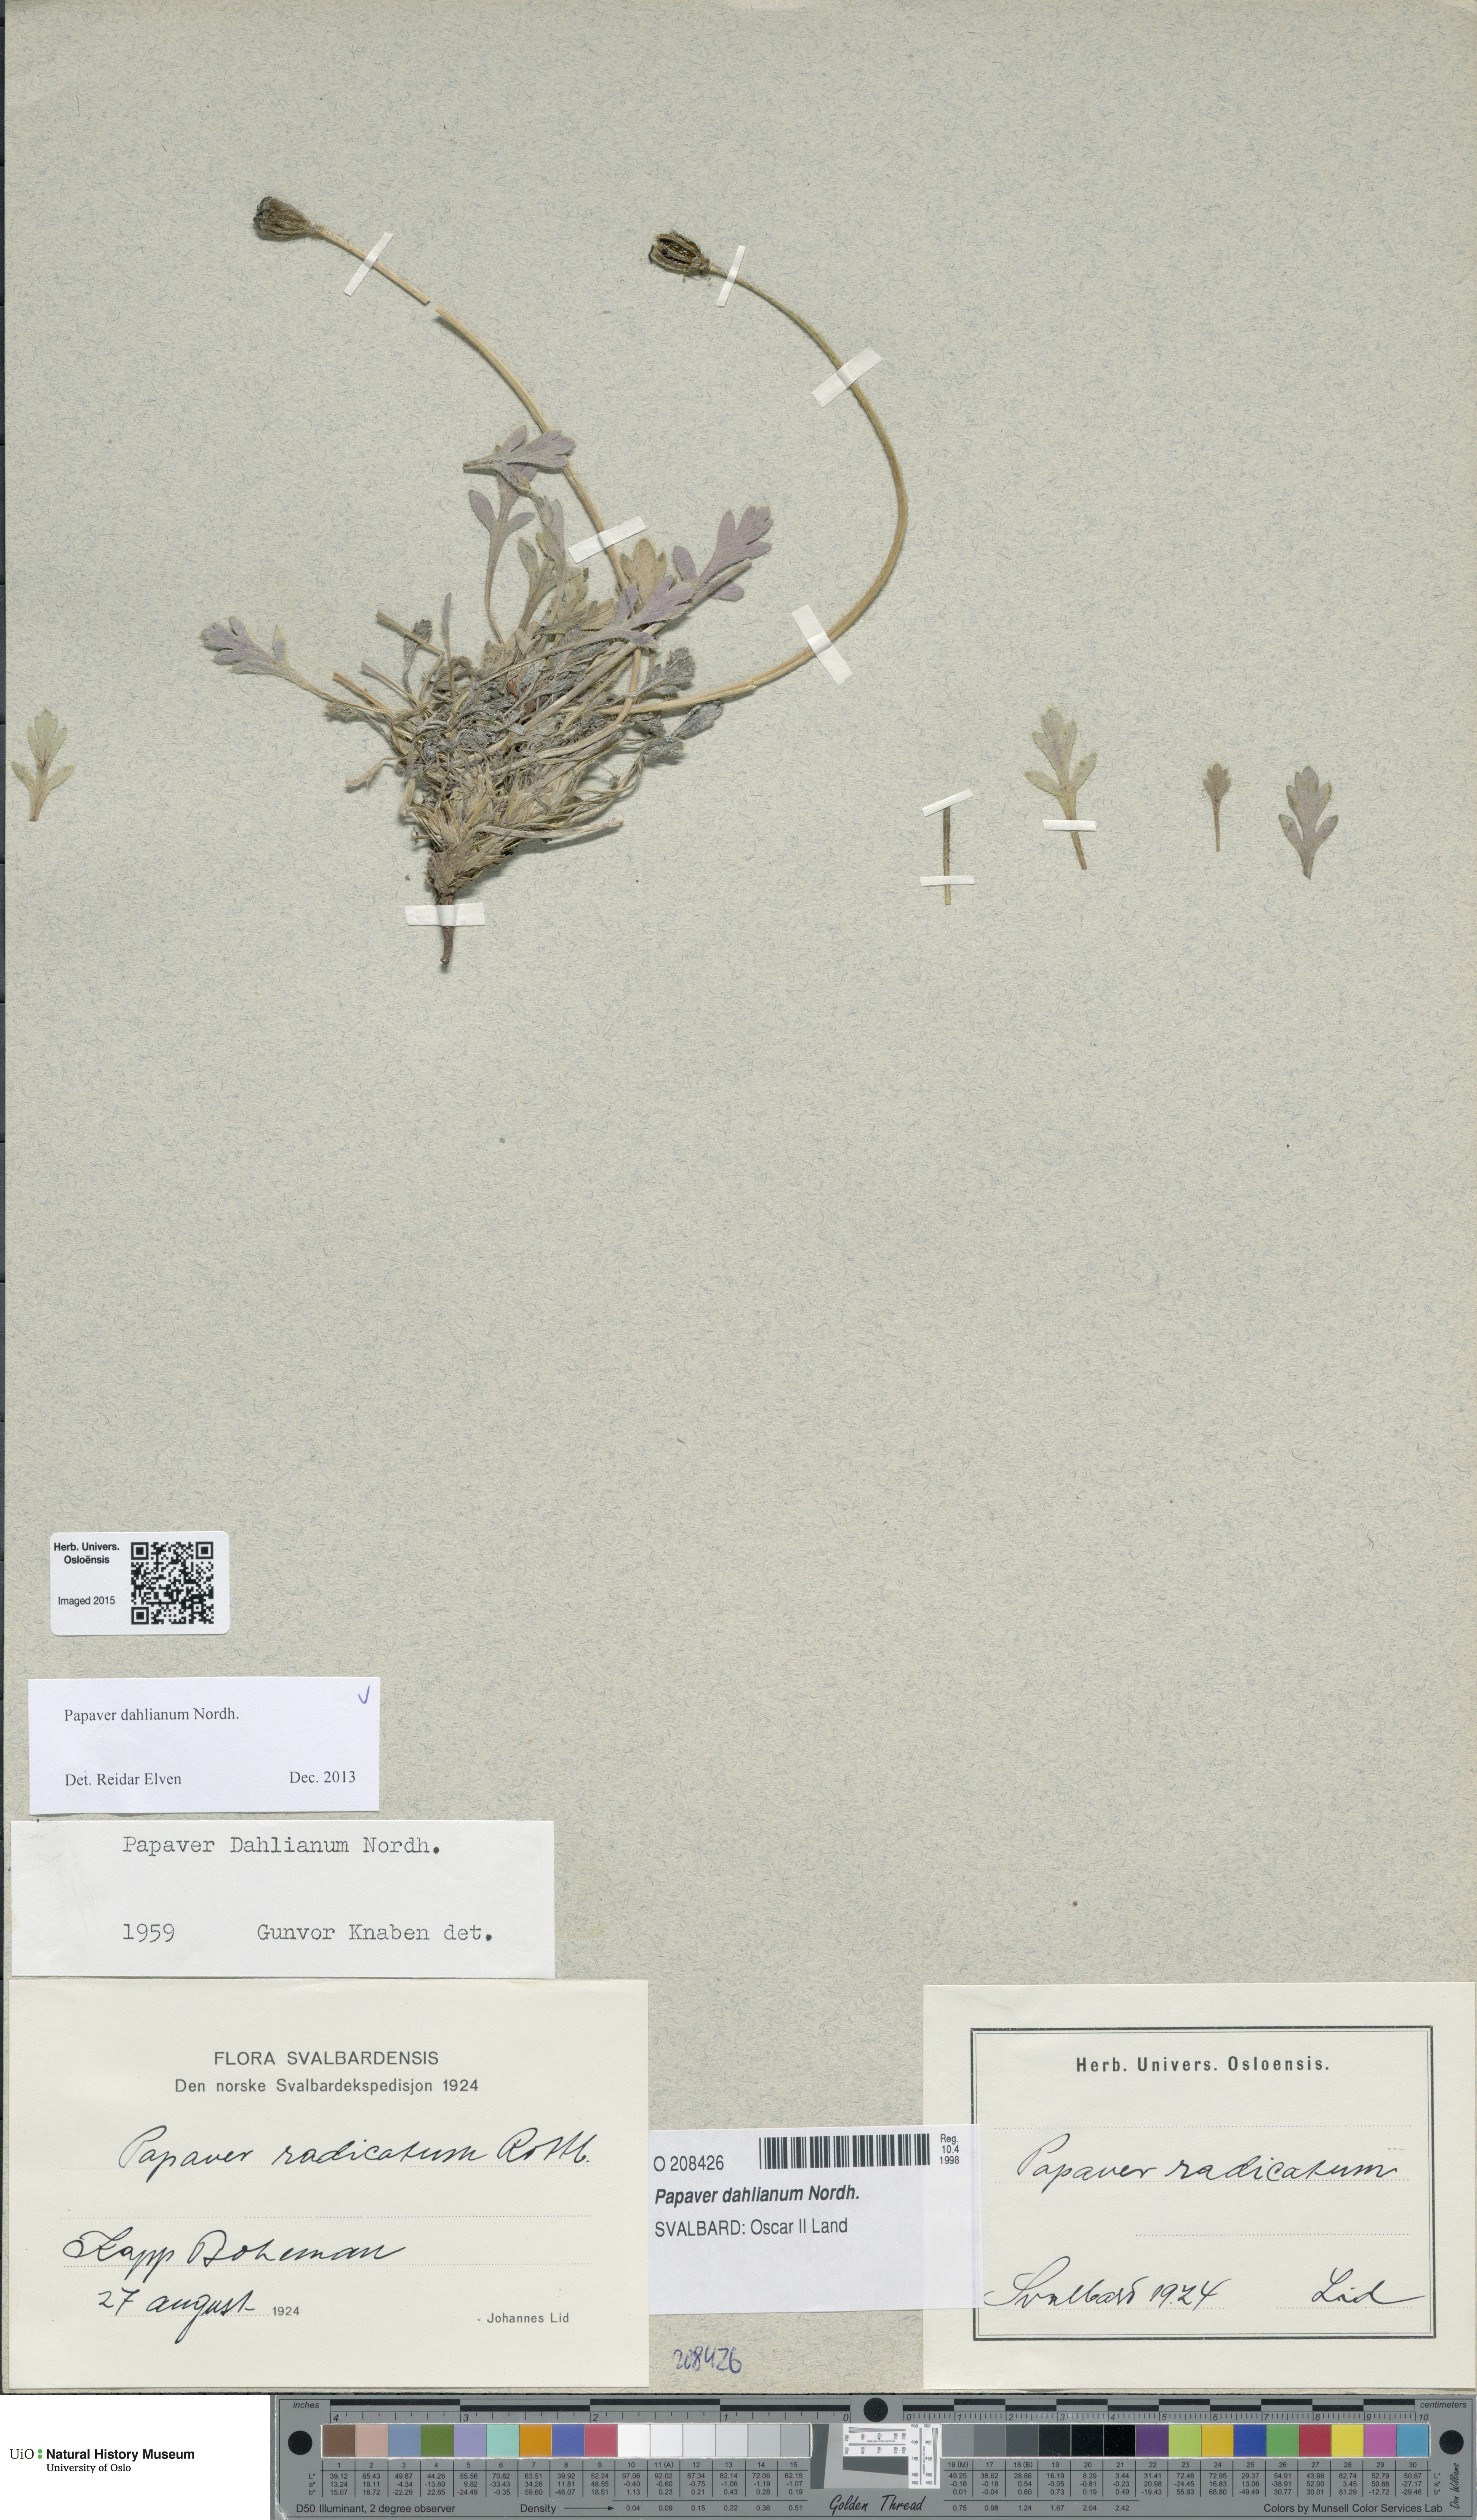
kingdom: Plantae
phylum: Tracheophyta
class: Magnoliopsida
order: Ranunculales
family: Papaveraceae
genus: Papaver
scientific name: Papaver radicatum
